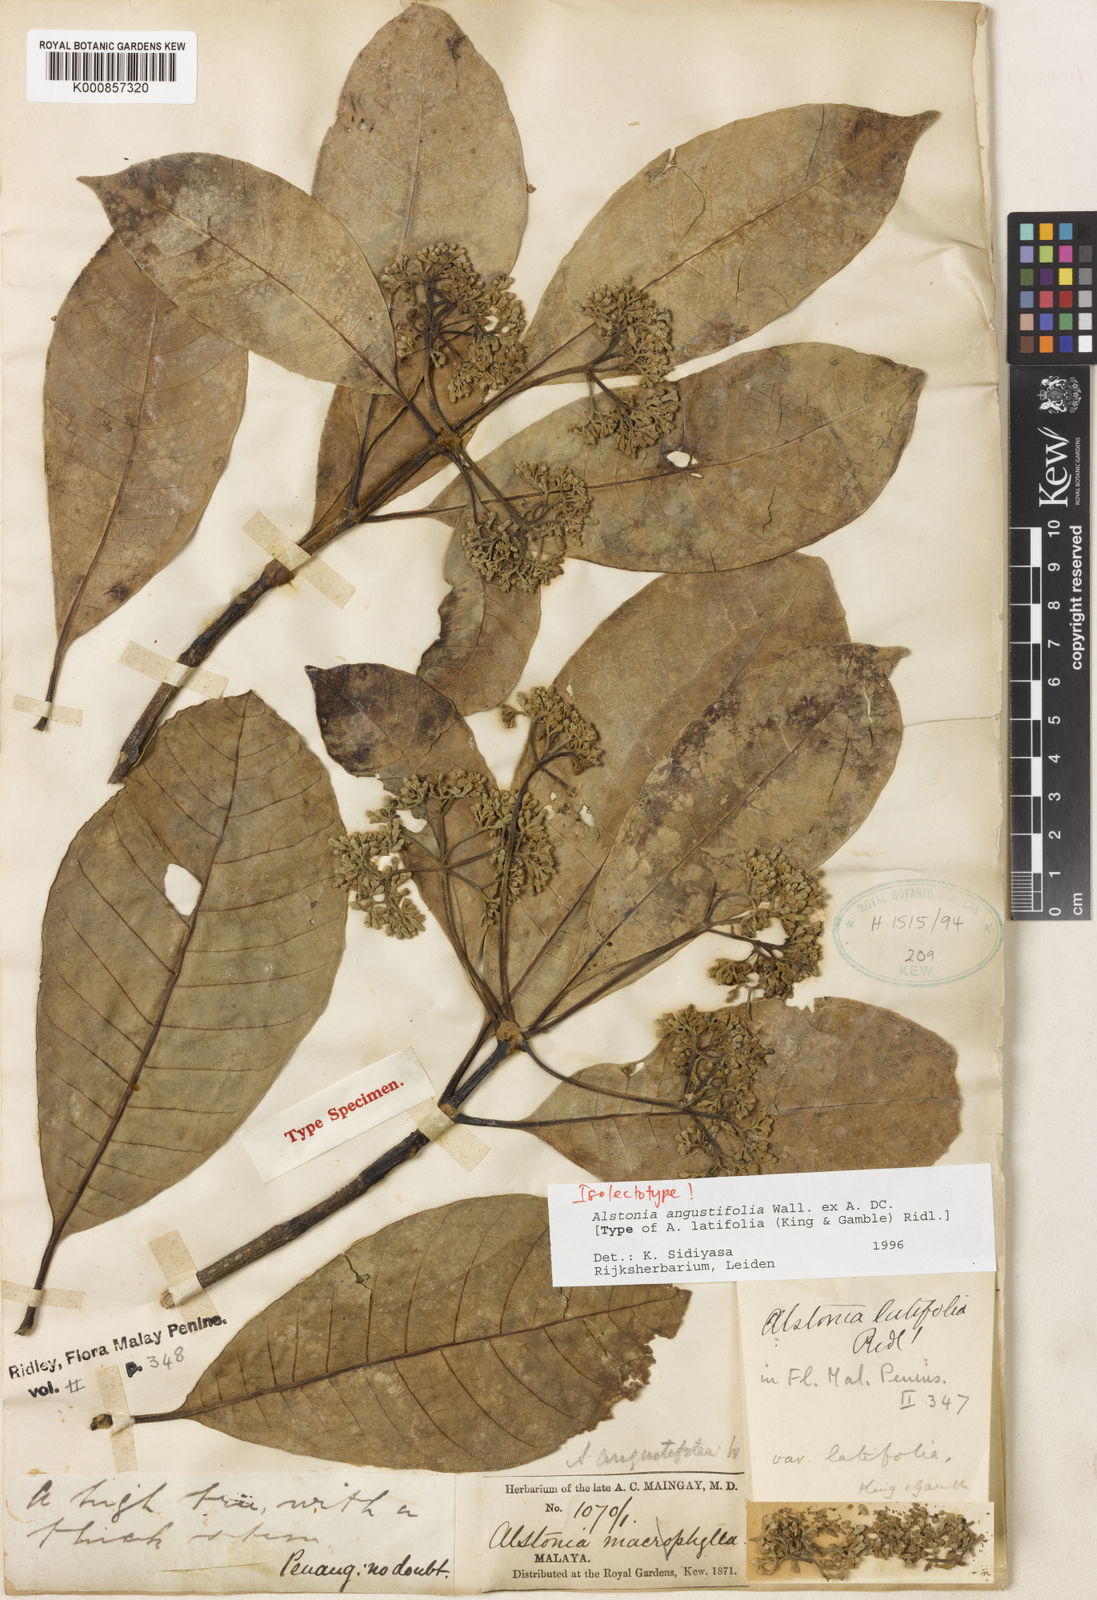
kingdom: Plantae
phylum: Tracheophyta
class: Magnoliopsida
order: Gentianales
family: Apocynaceae
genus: Alstonia
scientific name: Alstonia angustifolia
